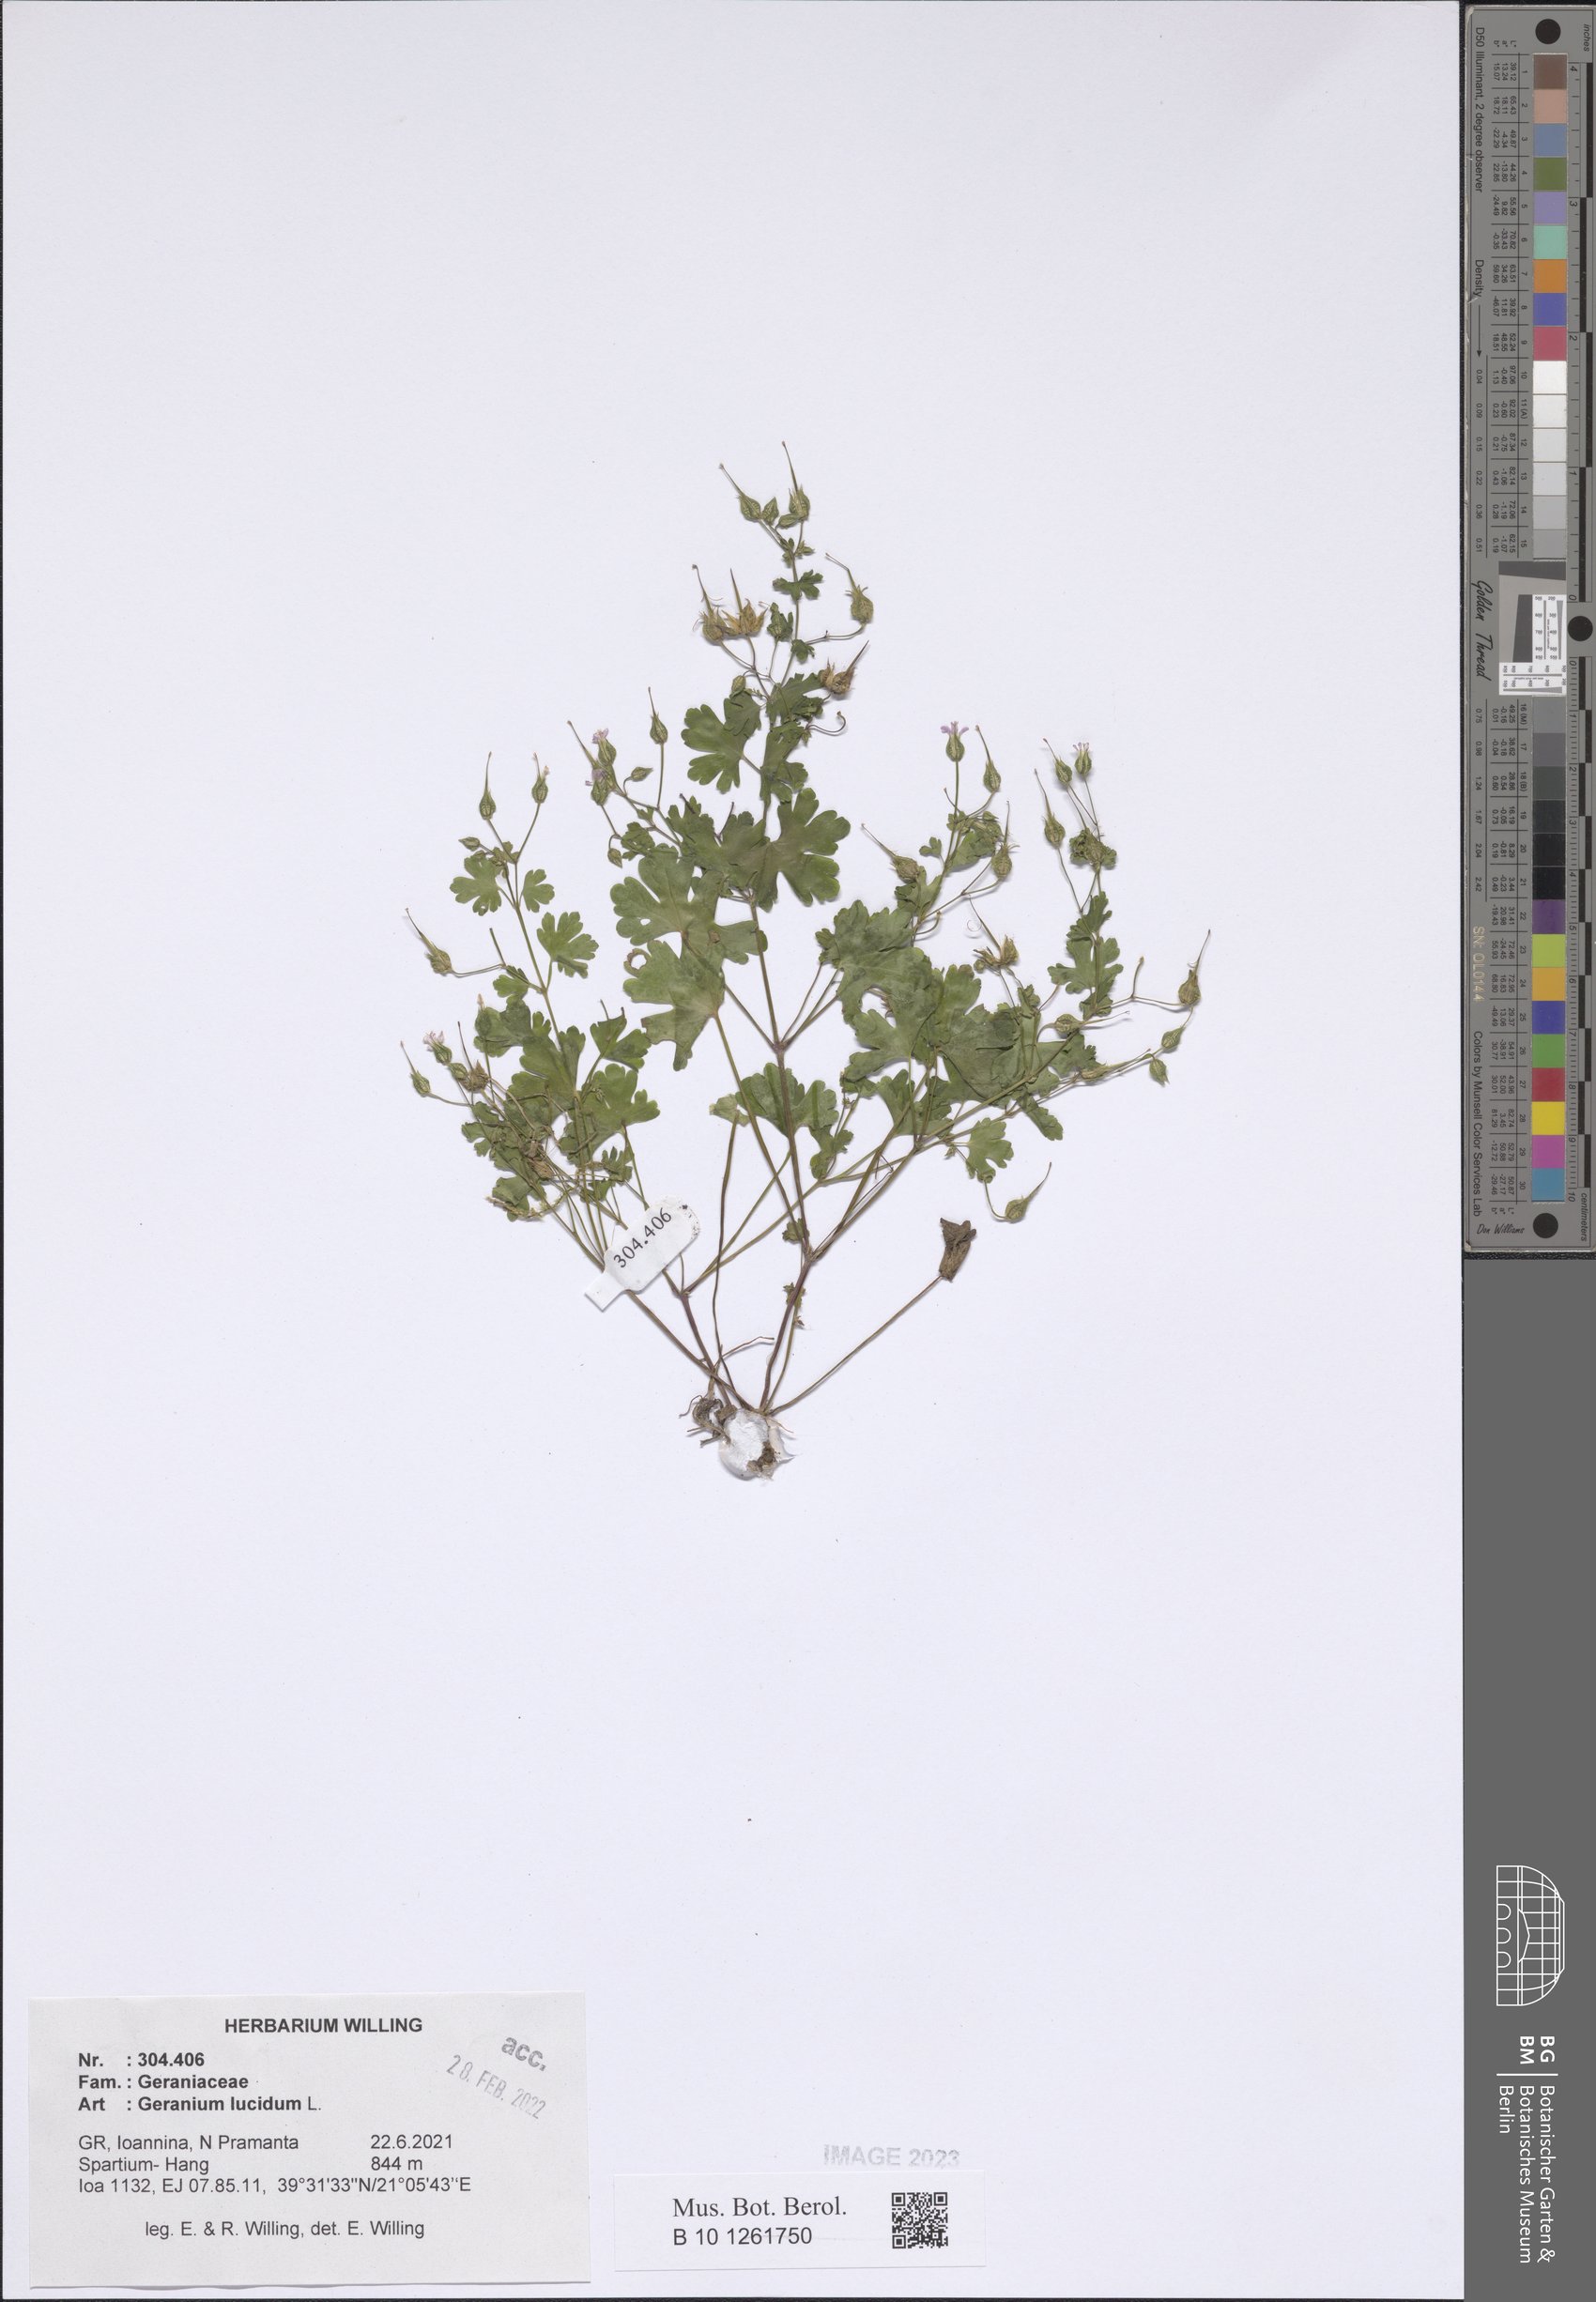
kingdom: Plantae
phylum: Tracheophyta
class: Magnoliopsida
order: Geraniales
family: Geraniaceae
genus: Geranium
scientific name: Geranium lucidum
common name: Shining crane's-bill
